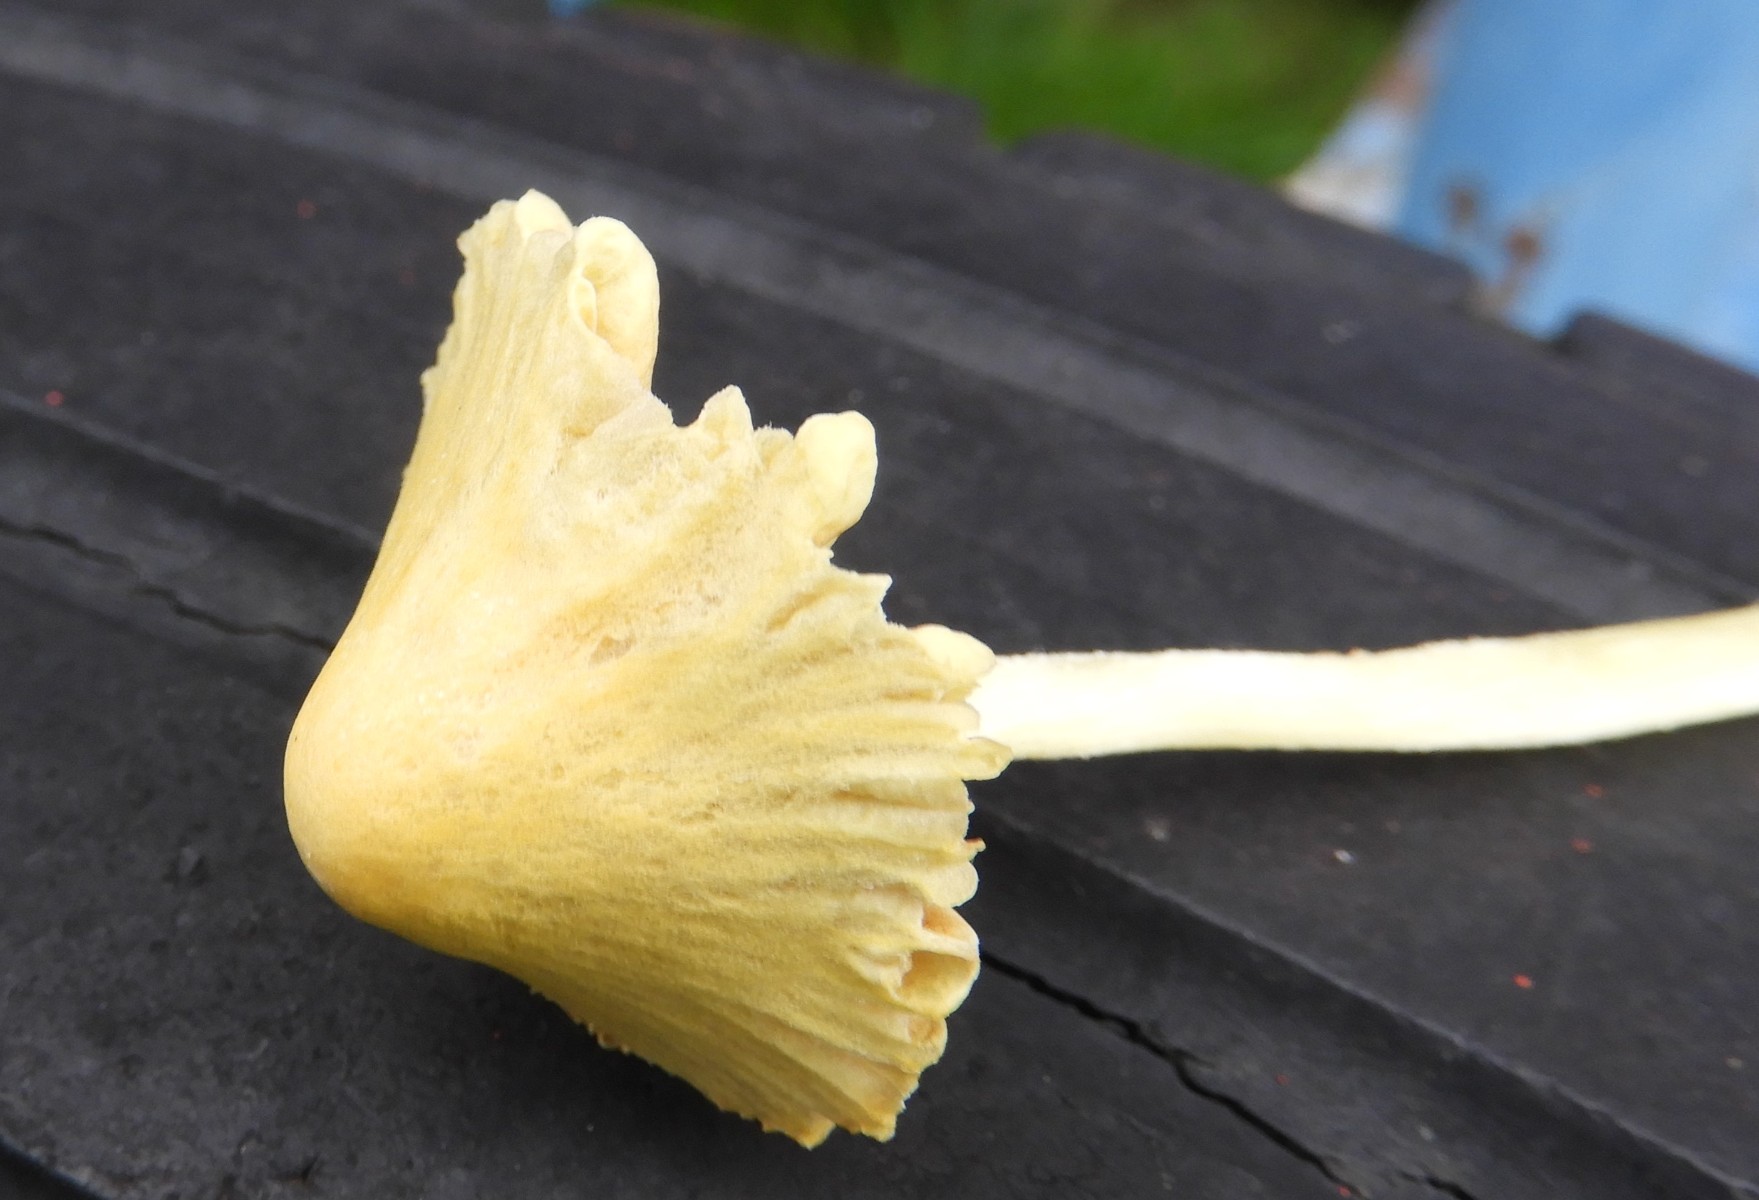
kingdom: Fungi
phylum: Basidiomycota
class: Agaricomycetes
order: Agaricales
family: Bolbitiaceae
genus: Bolbitius
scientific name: Bolbitius titubans
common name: almindelig gulhat
